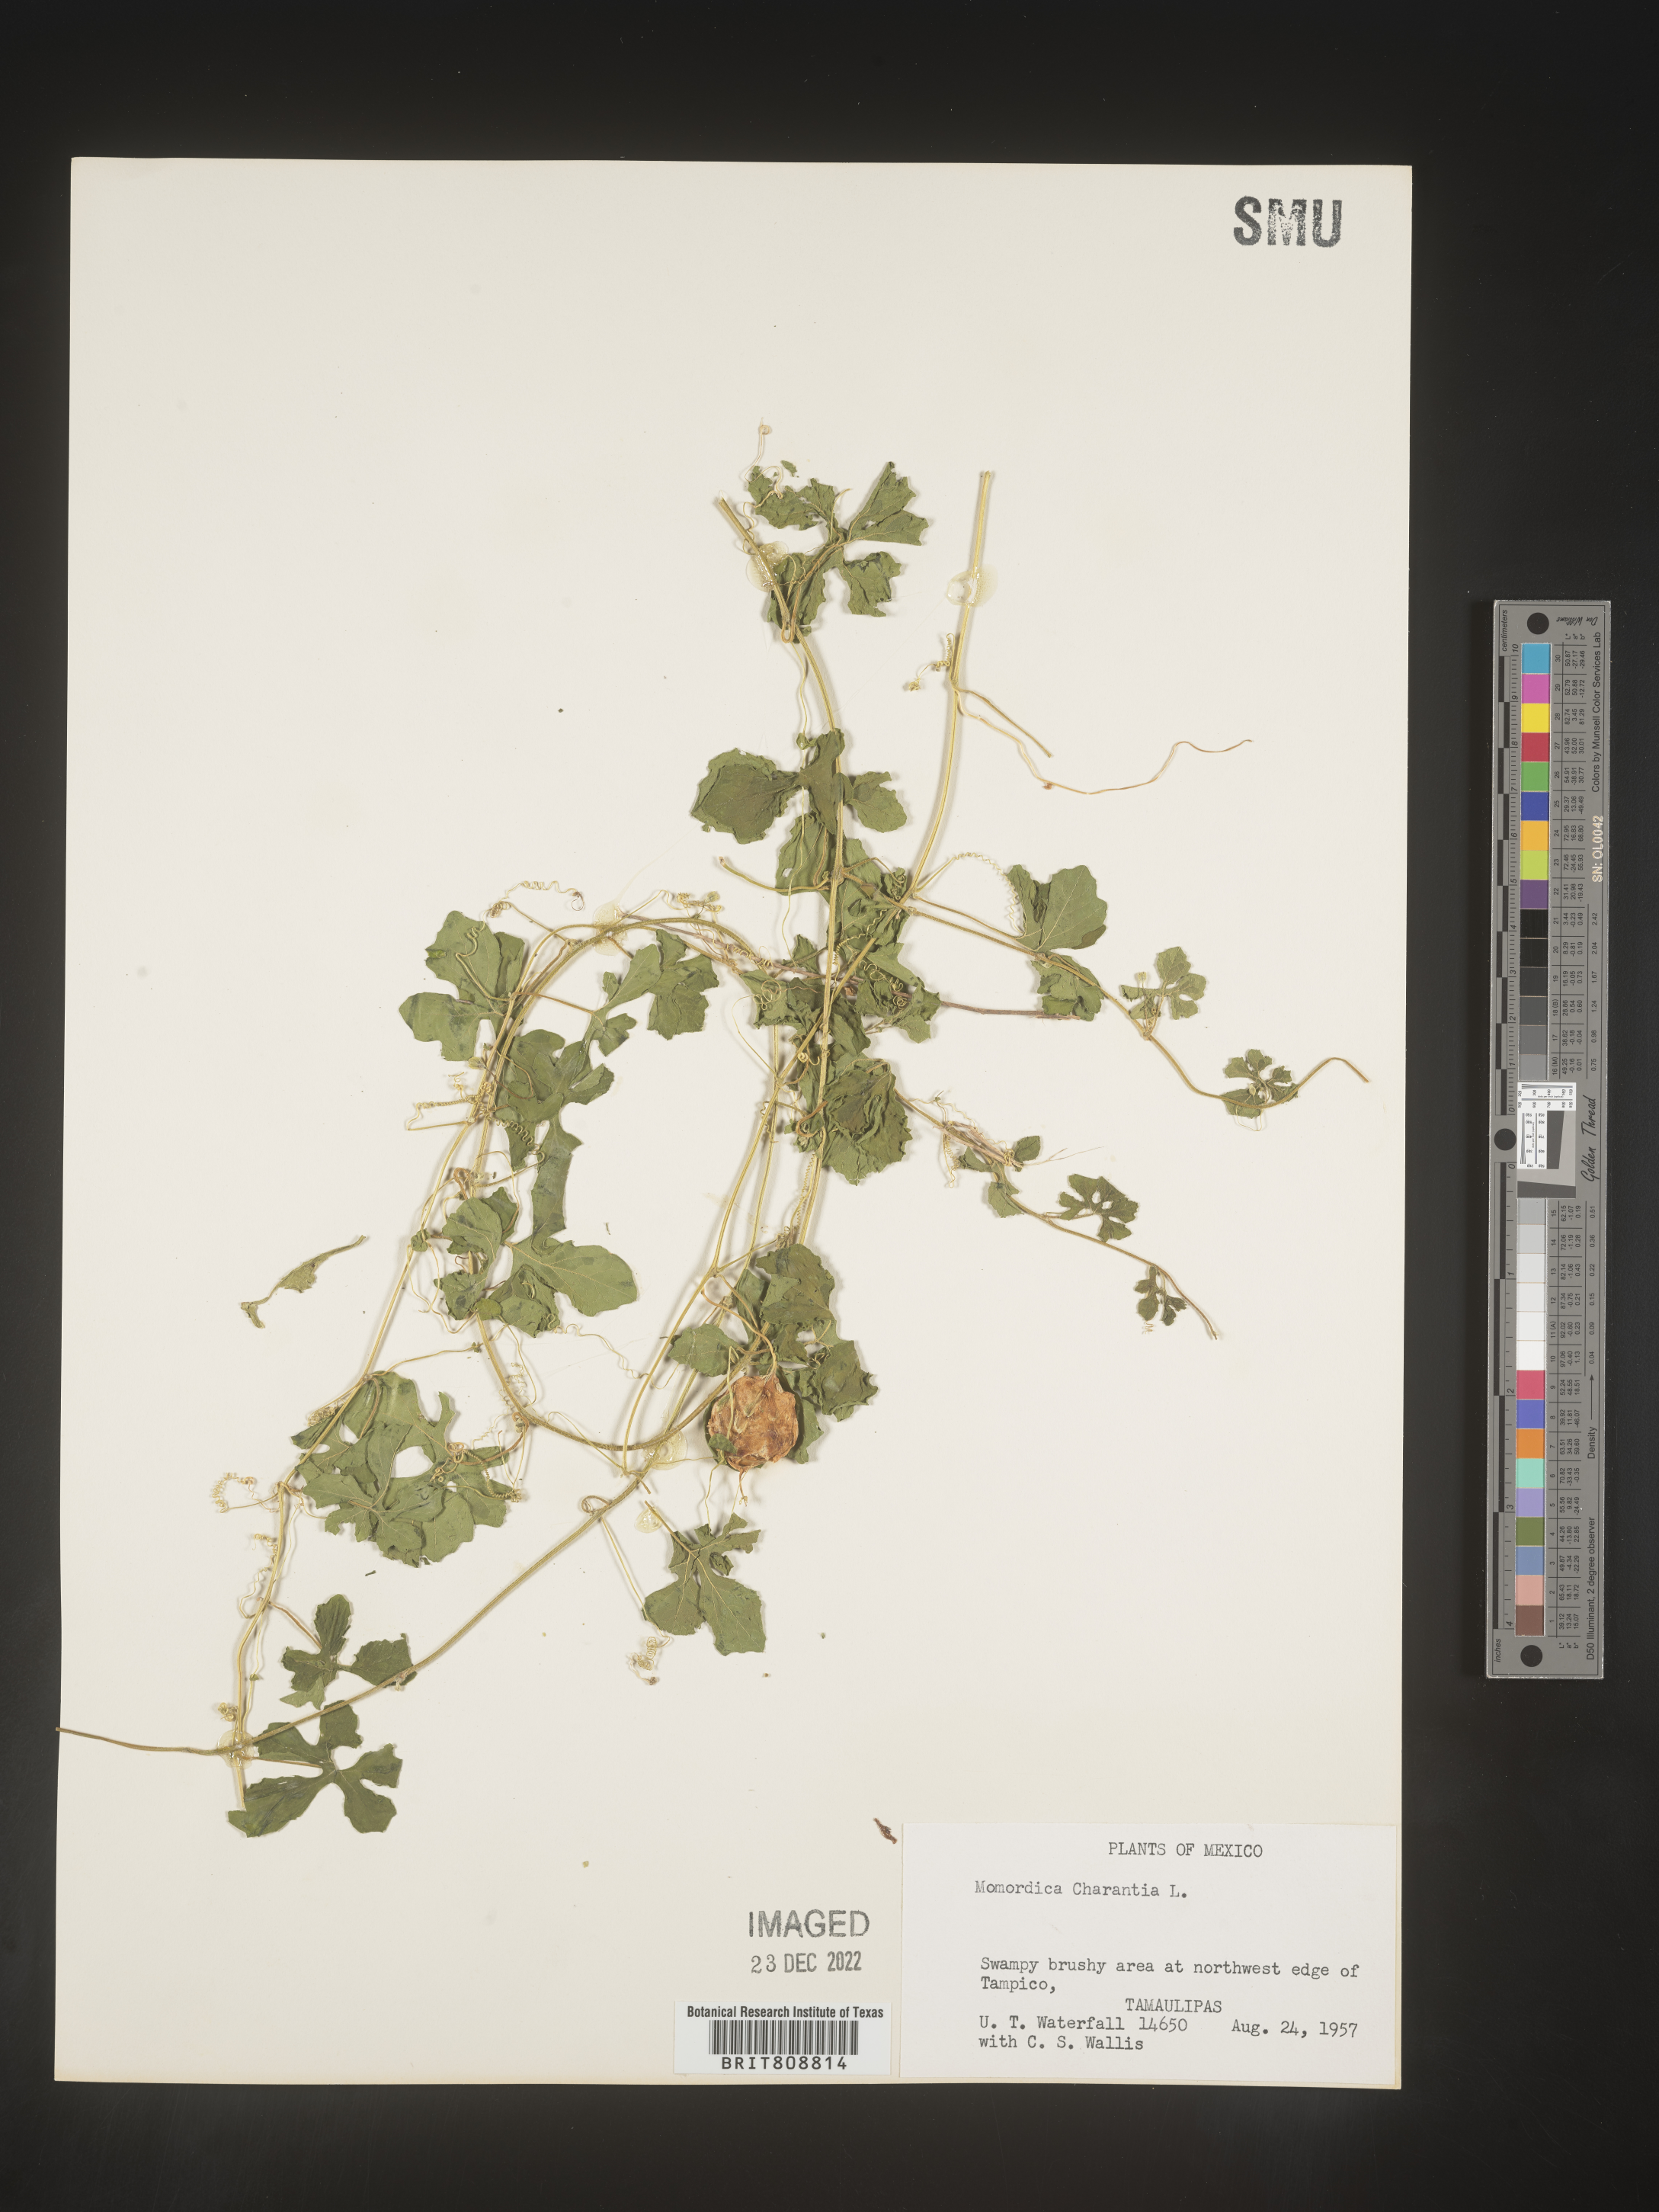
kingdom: Plantae
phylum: Tracheophyta
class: Magnoliopsida
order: Cucurbitales
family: Cucurbitaceae
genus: Momordica
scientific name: Momordica
